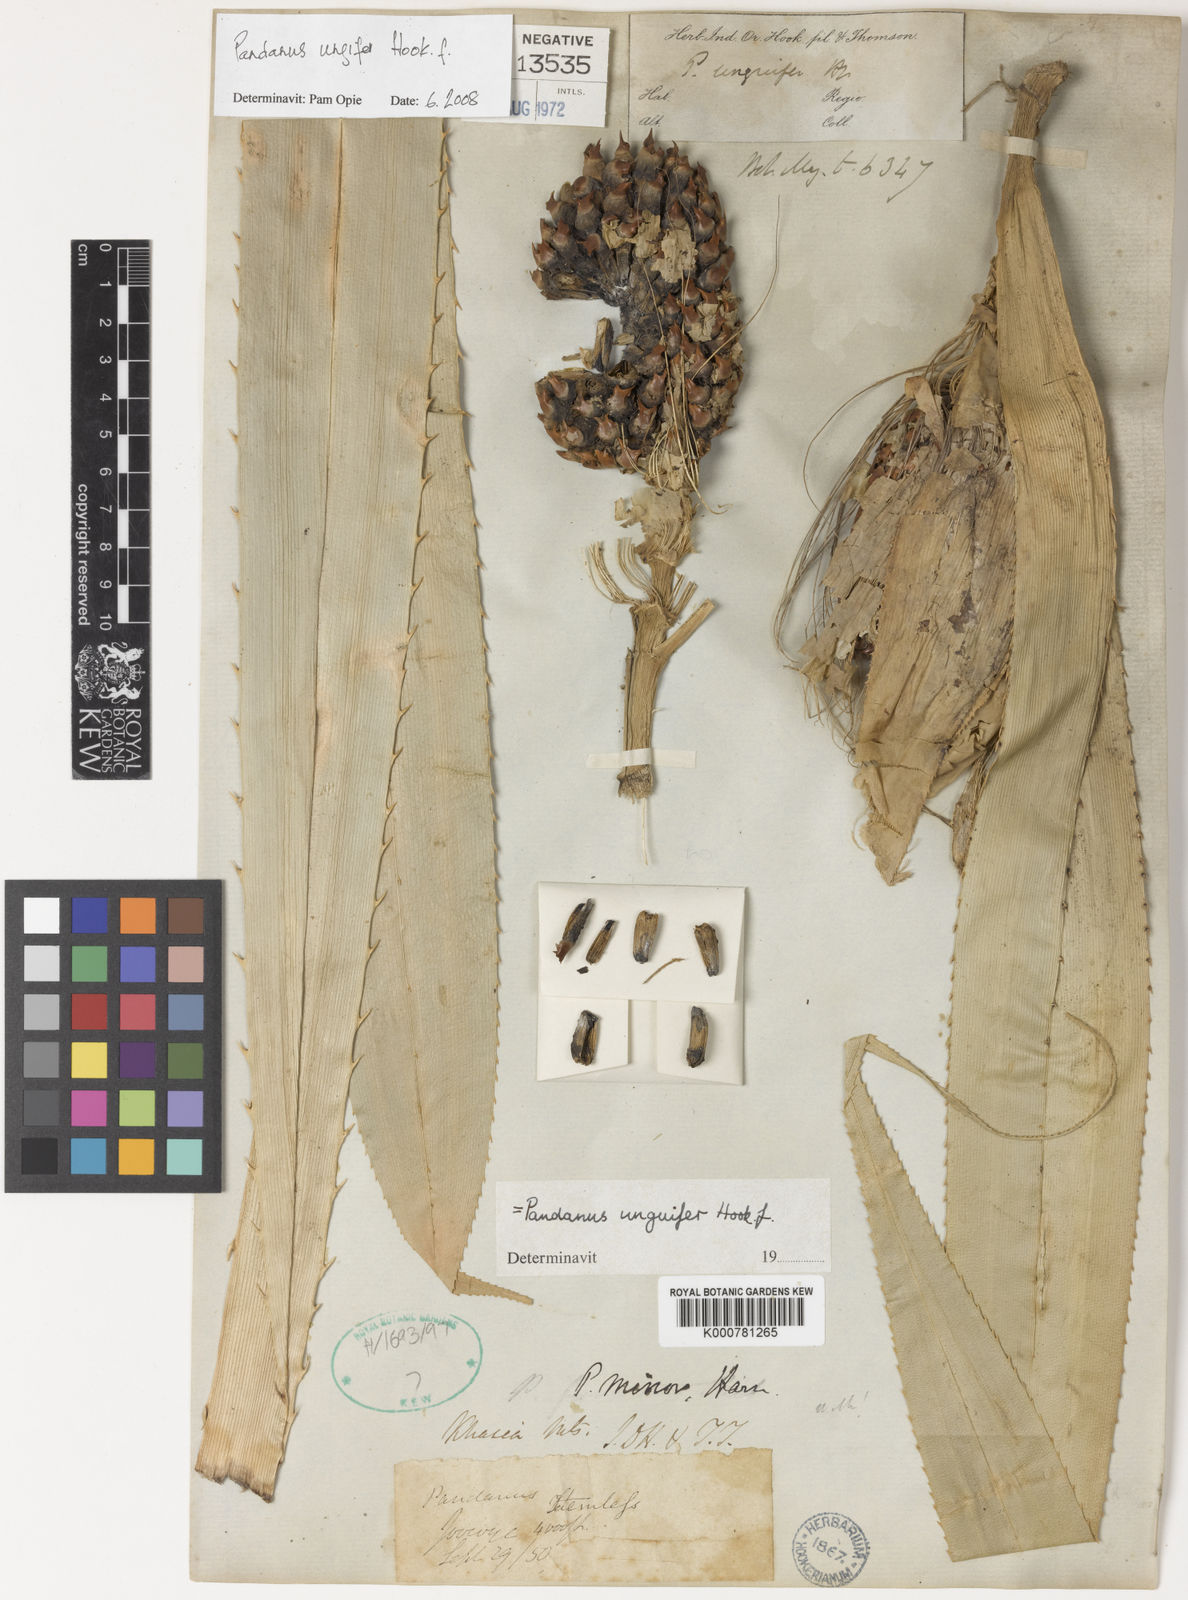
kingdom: Plantae
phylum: Tracheophyta
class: Liliopsida
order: Pandanales
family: Pandanaceae
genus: Pandanus
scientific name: Pandanus unguifer
